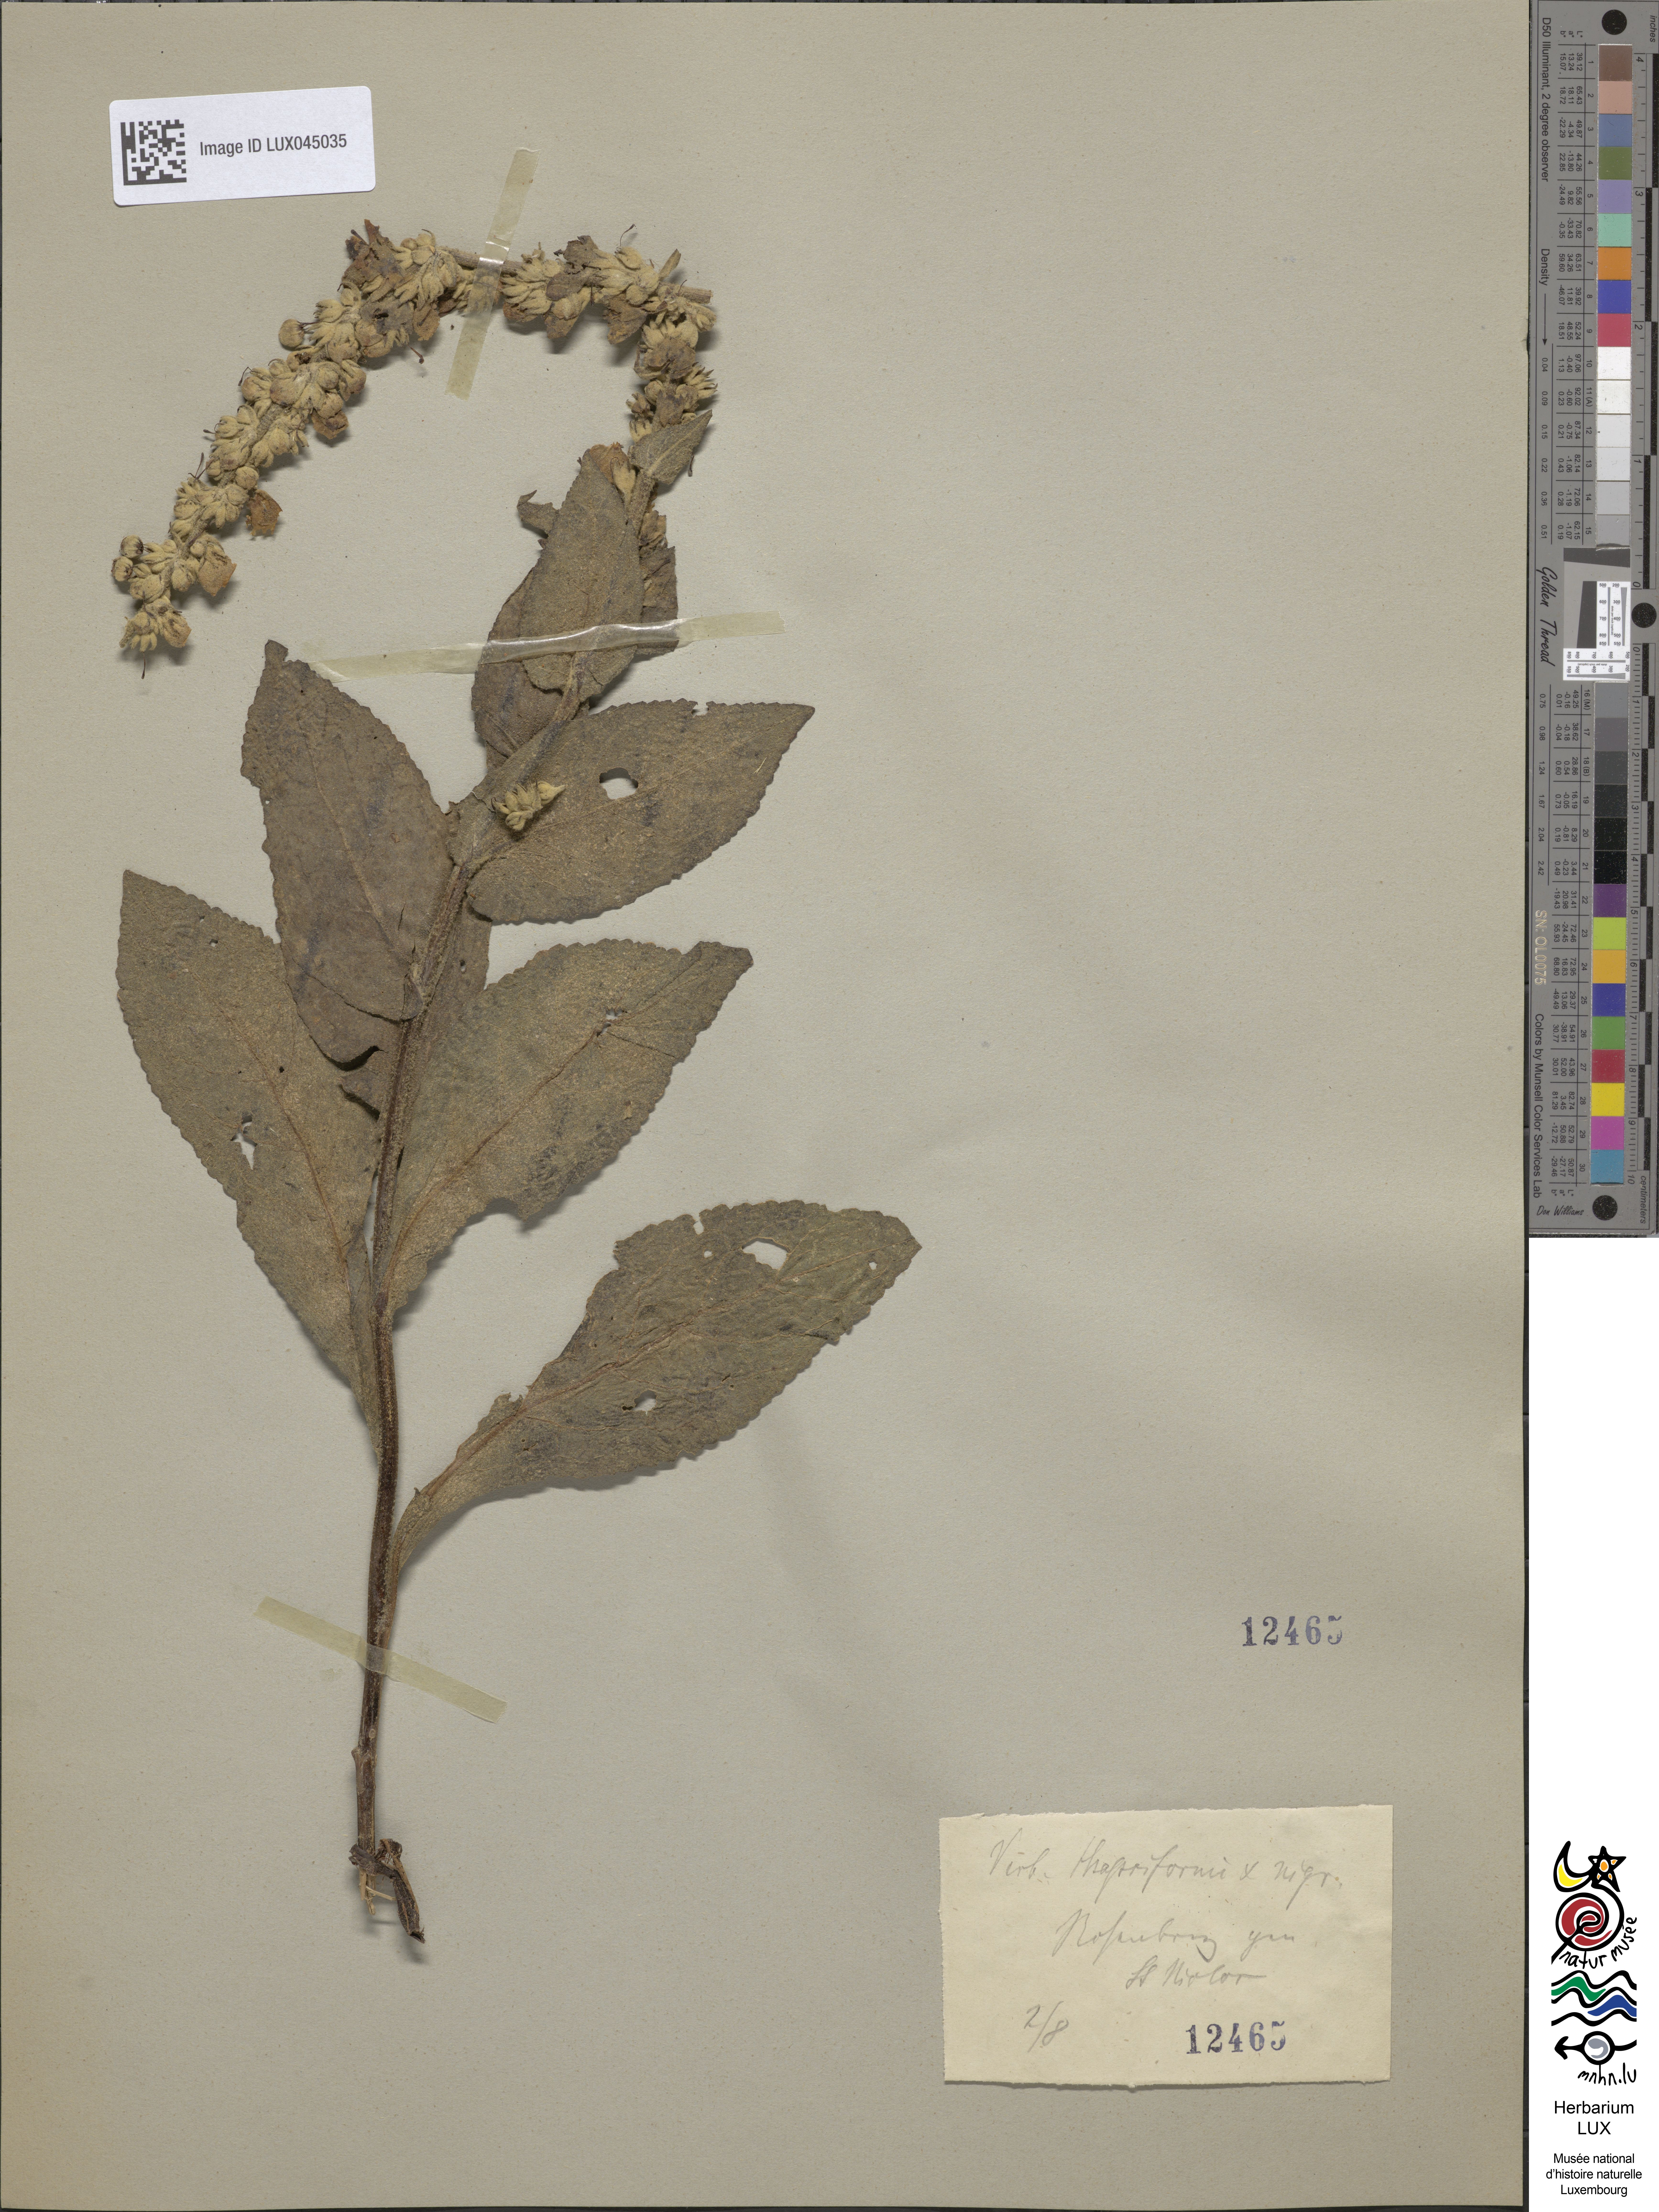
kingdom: Plantae
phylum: Tracheophyta
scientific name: Tracheophyta
